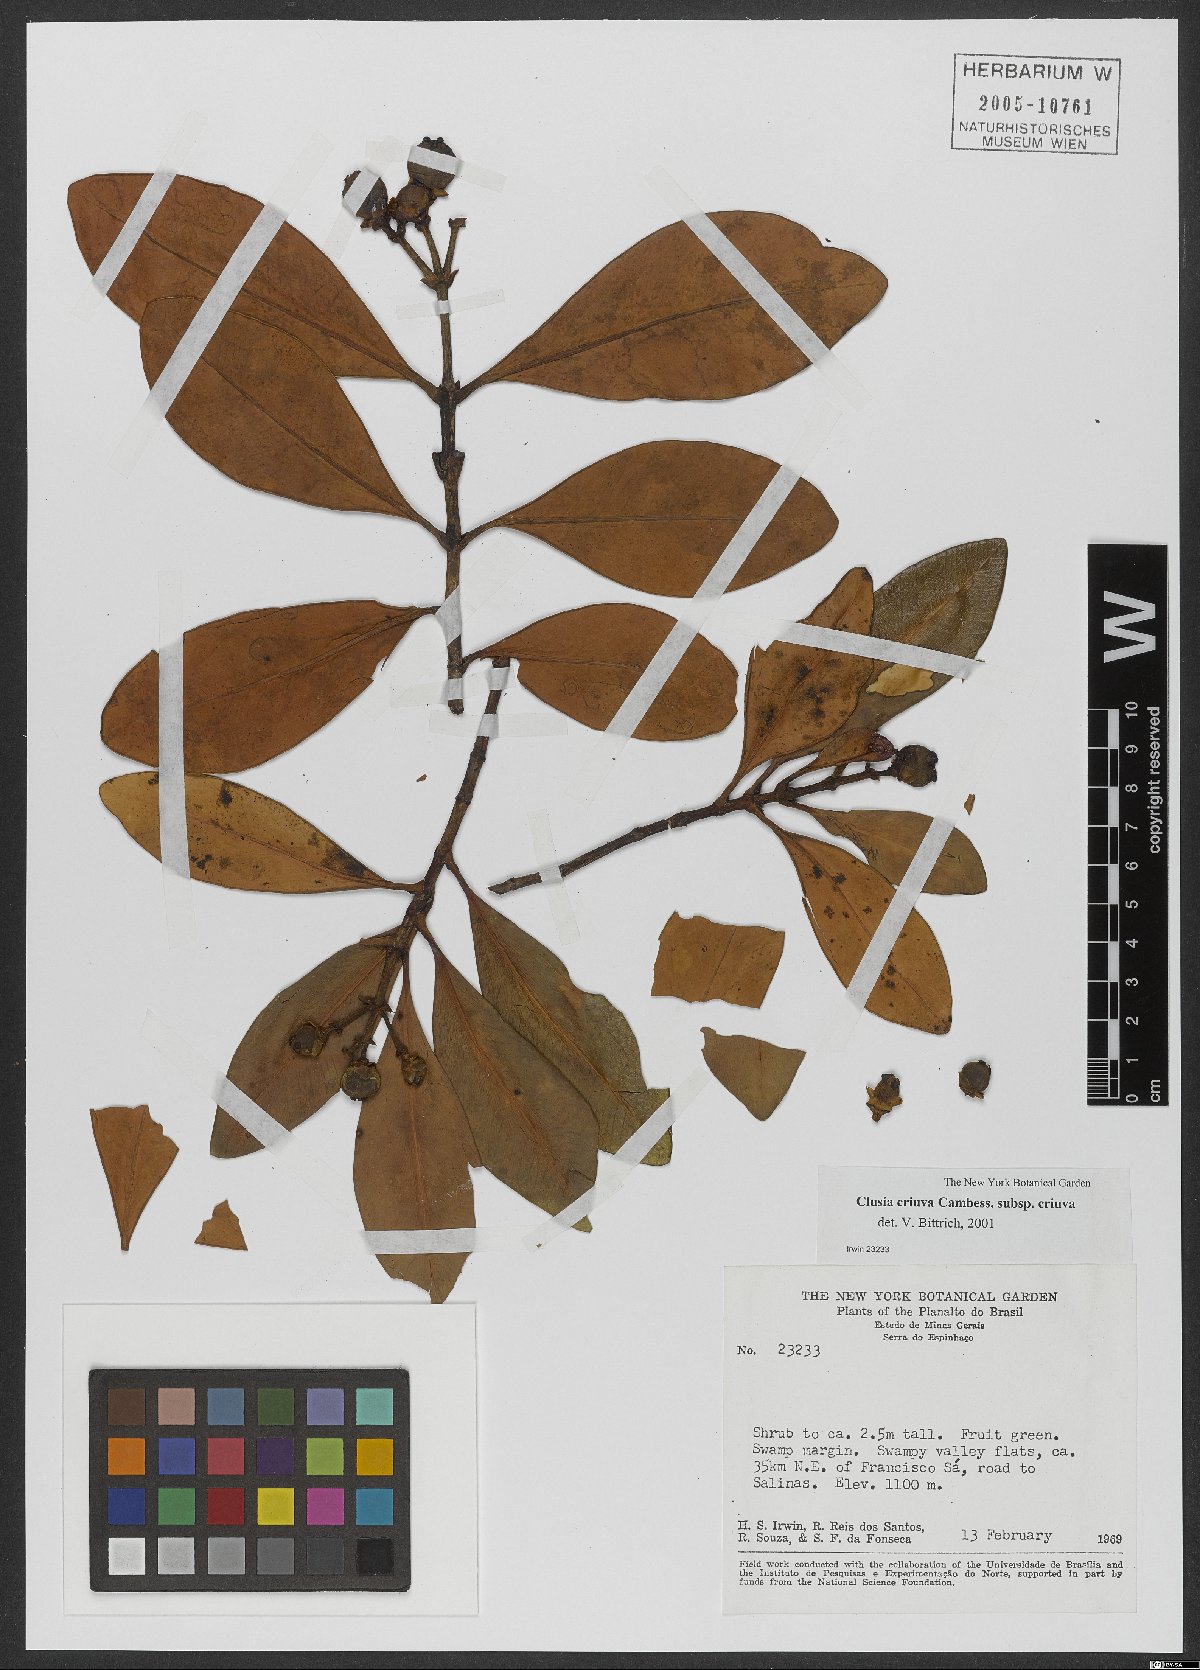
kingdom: Plantae
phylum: Tracheophyta
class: Magnoliopsida
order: Malpighiales
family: Clusiaceae
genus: Clusia
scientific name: Clusia criuva
